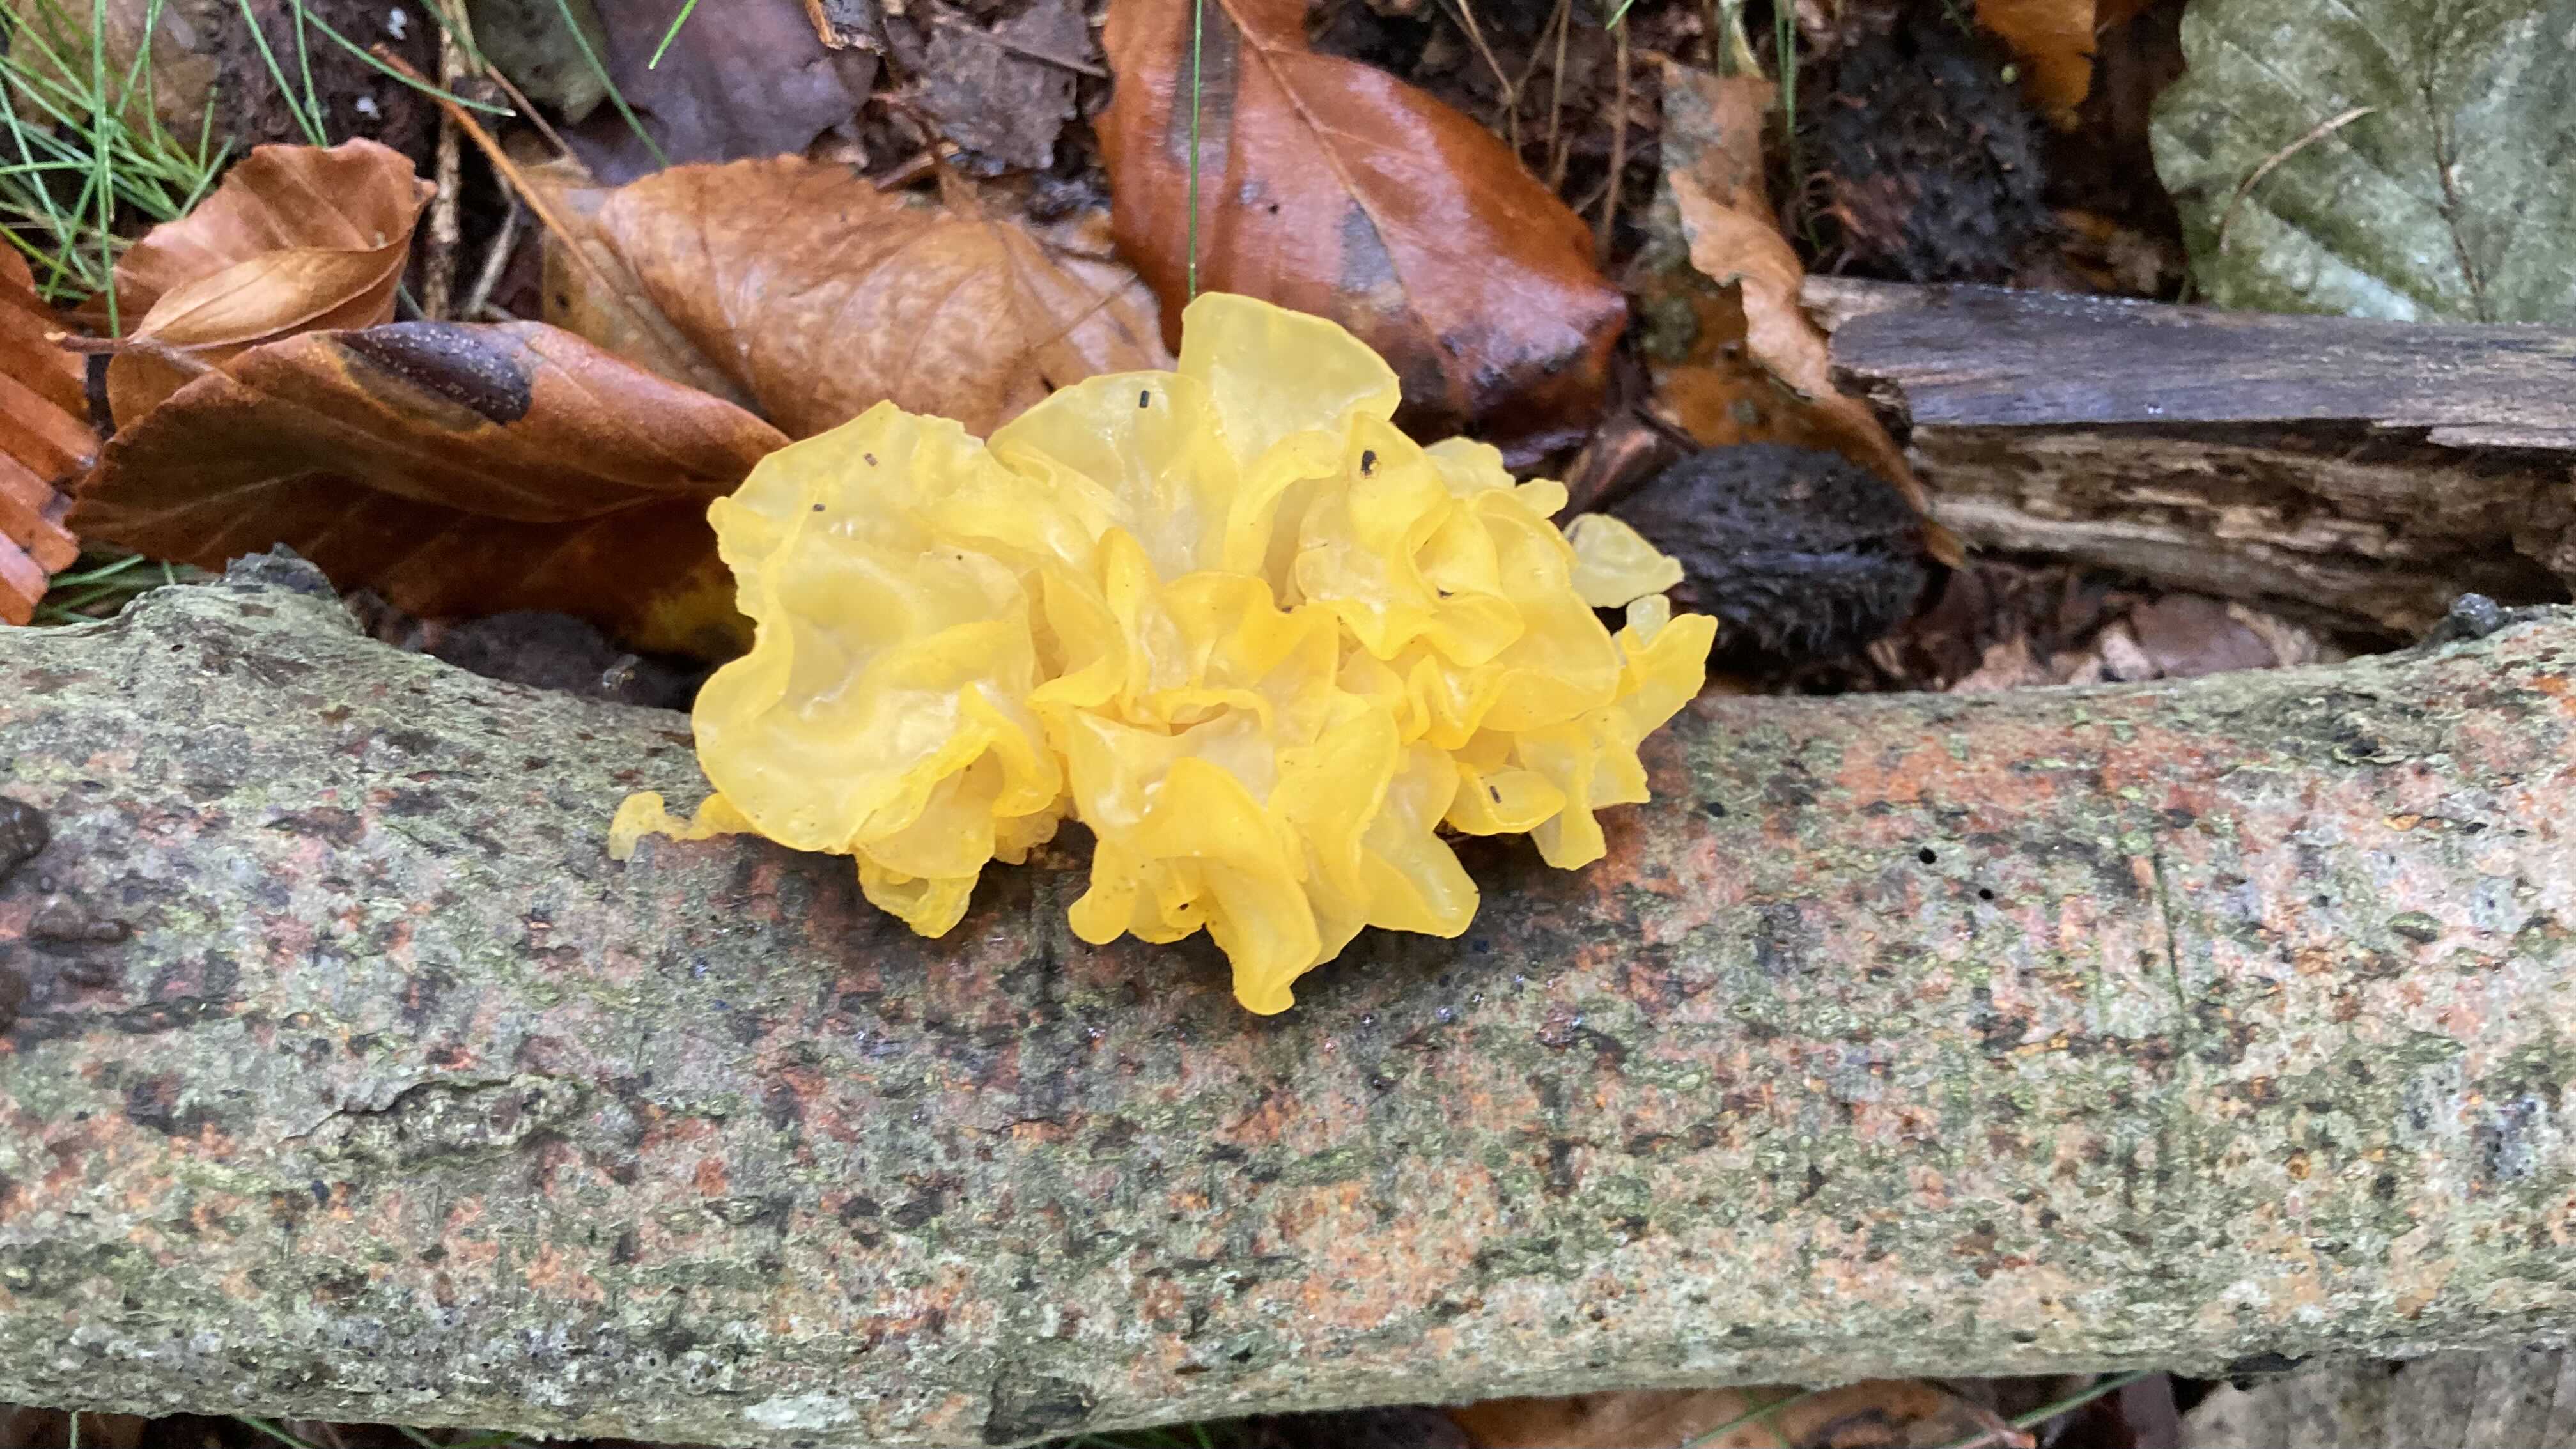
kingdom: Fungi
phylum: Basidiomycota
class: Tremellomycetes
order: Tremellales
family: Tremellaceae
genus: Tremella
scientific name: Tremella mesenterica
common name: gul bævresvamp
